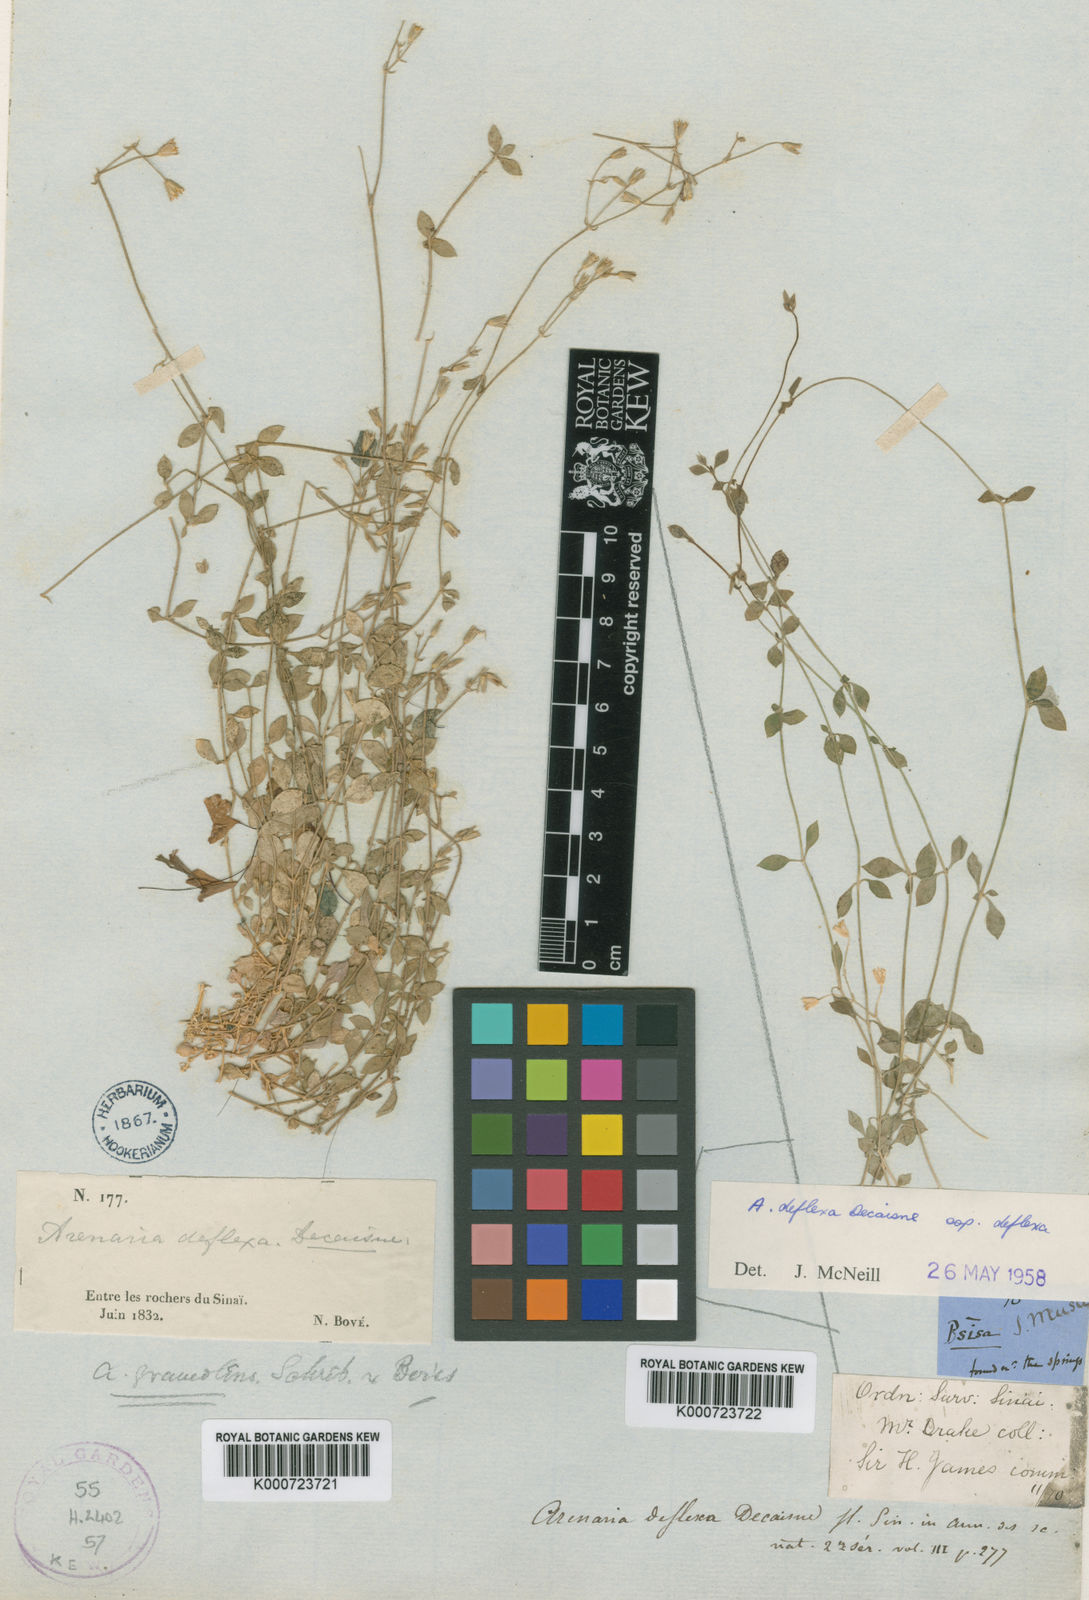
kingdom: Plantae
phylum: Tracheophyta
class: Magnoliopsida
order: Caryophyllales
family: Caryophyllaceae
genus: Arenaria
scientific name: Arenaria deflexa
